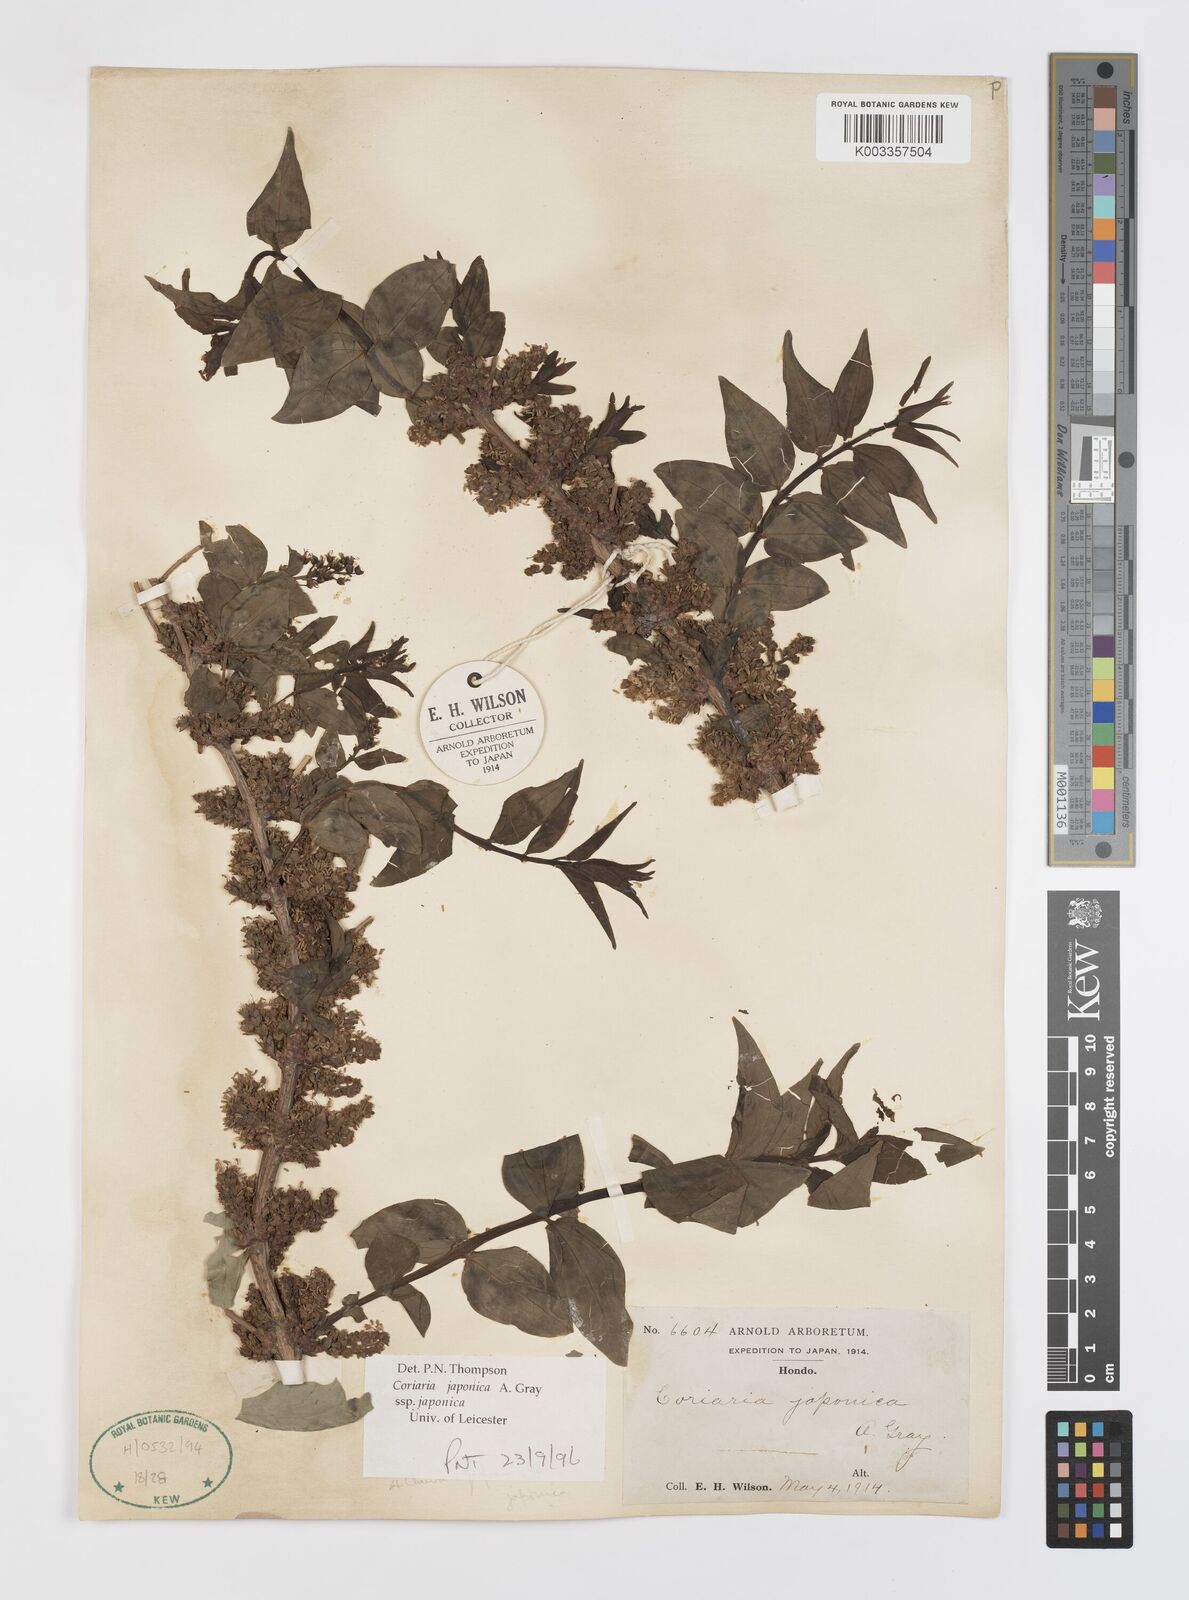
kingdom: Plantae
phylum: Tracheophyta
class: Magnoliopsida
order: Cucurbitales
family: Coriariaceae
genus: Coriaria
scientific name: Coriaria japonica
